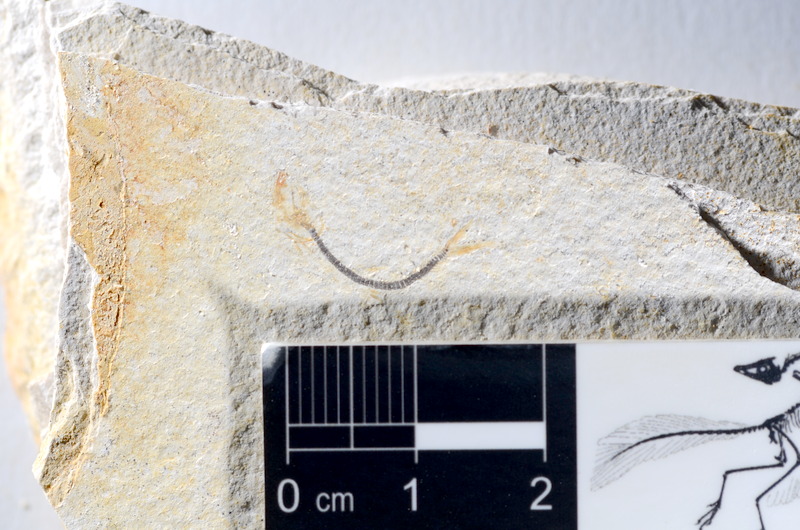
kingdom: Animalia
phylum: Chordata
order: Salmoniformes
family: Orthogonikleithridae
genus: Orthogonikleithrus
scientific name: Orthogonikleithrus hoelli
